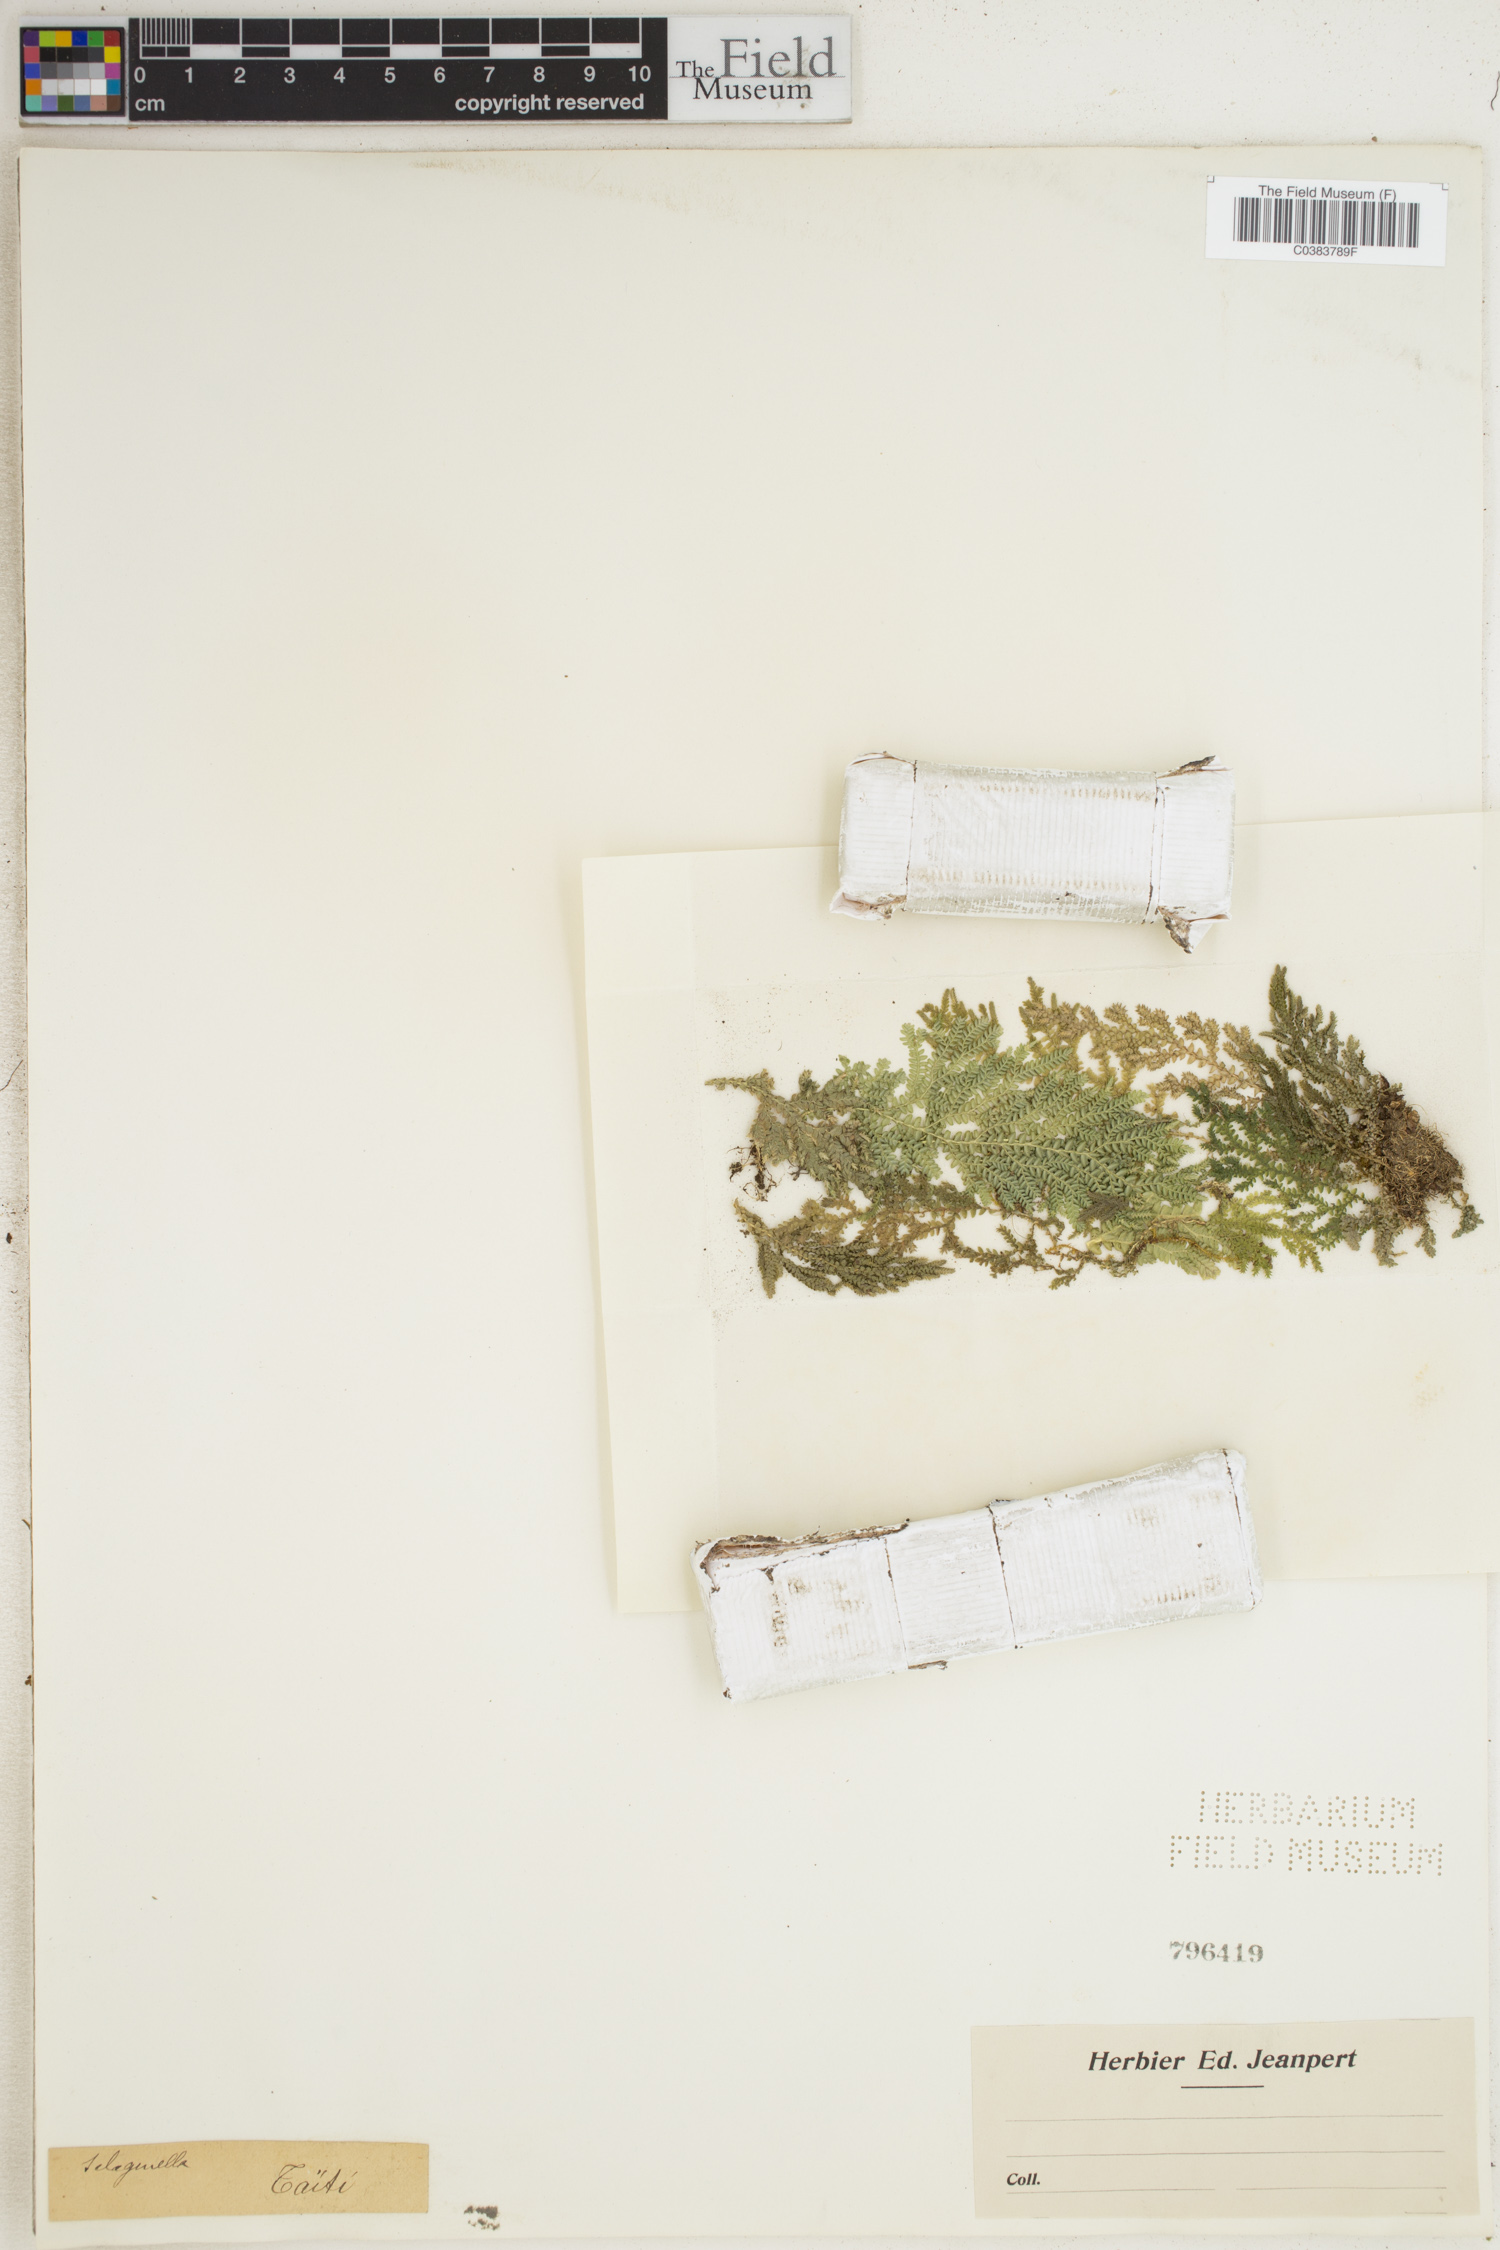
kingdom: Plantae
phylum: Tracheophyta
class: Lycopodiopsida
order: Selaginellales
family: Selaginellaceae
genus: Selaginella
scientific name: Selaginella
